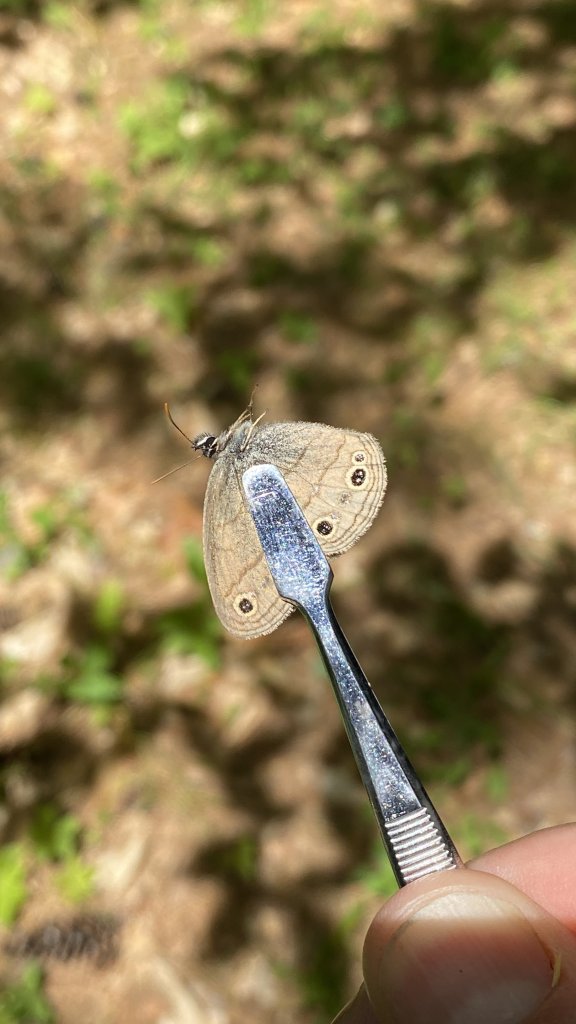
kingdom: Animalia
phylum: Arthropoda
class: Insecta
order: Lepidoptera
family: Nymphalidae
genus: Euptychia
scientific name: Euptychia cymela
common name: Little Wood Satyr
